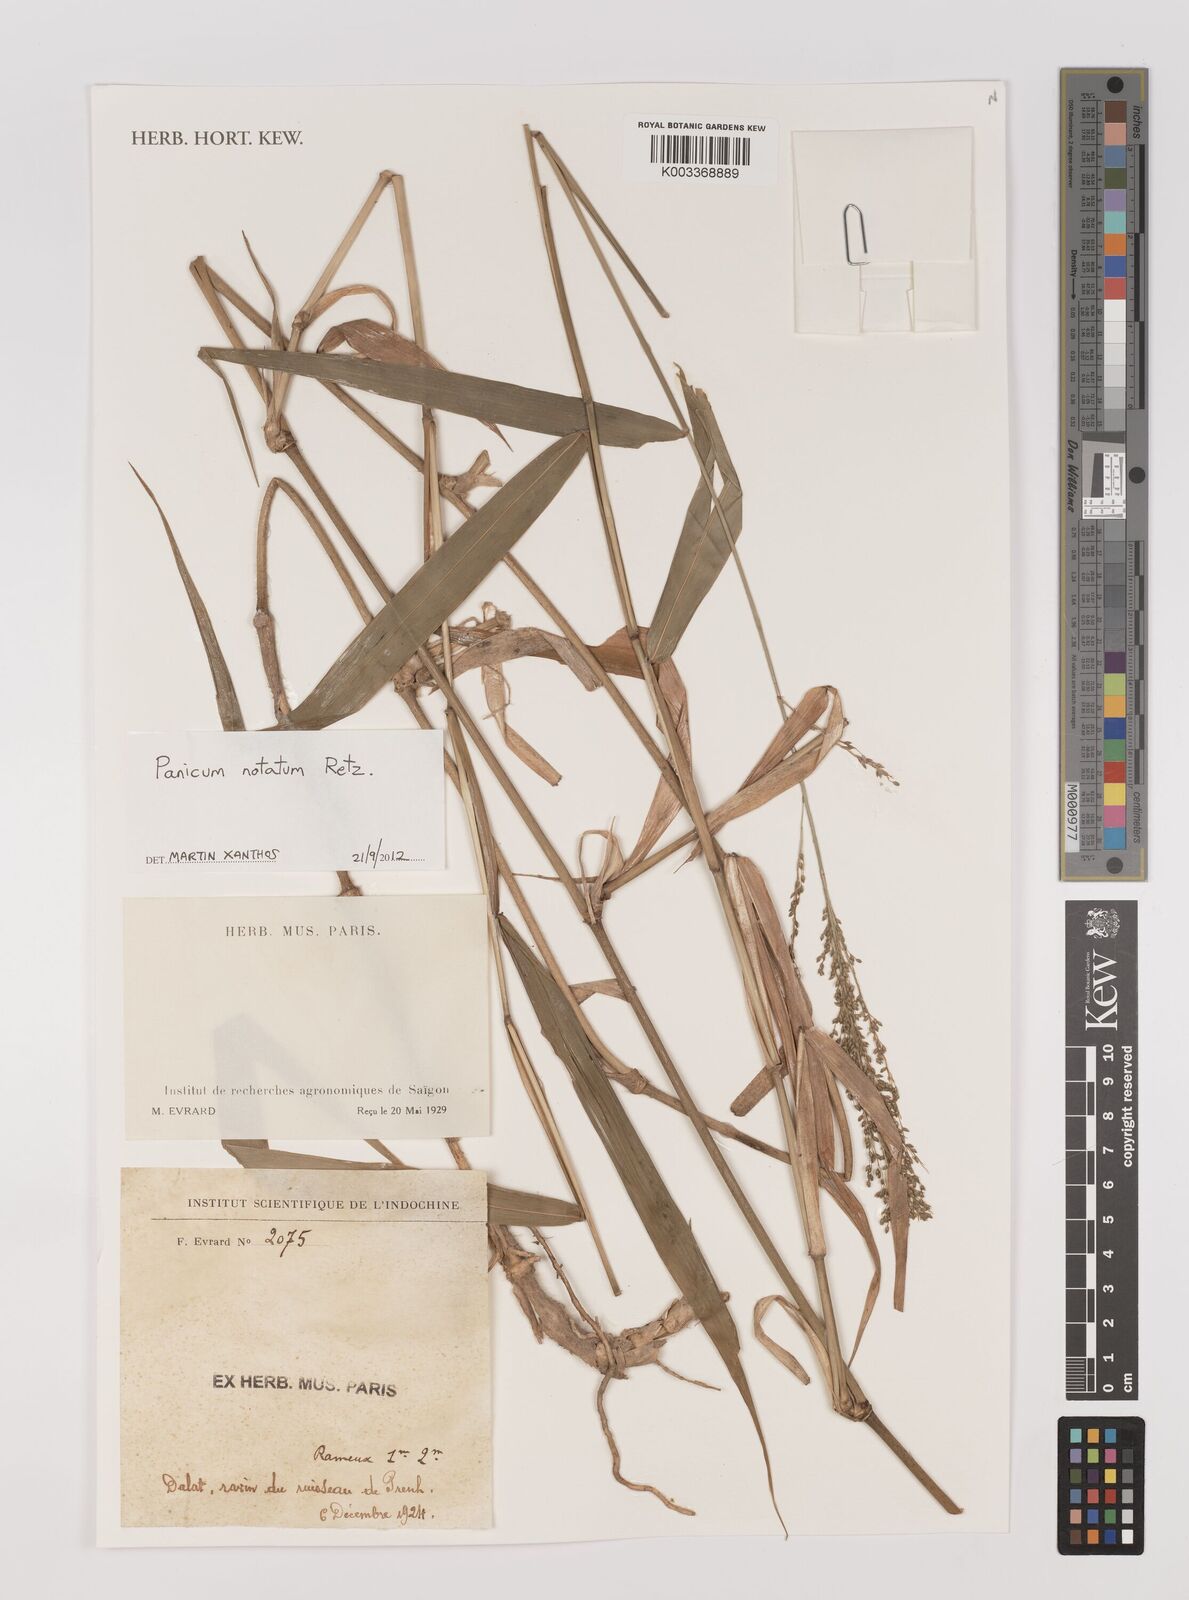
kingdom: Plantae
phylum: Tracheophyta
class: Liliopsida
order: Poales
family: Poaceae
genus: Panicum
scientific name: Panicum notatum
